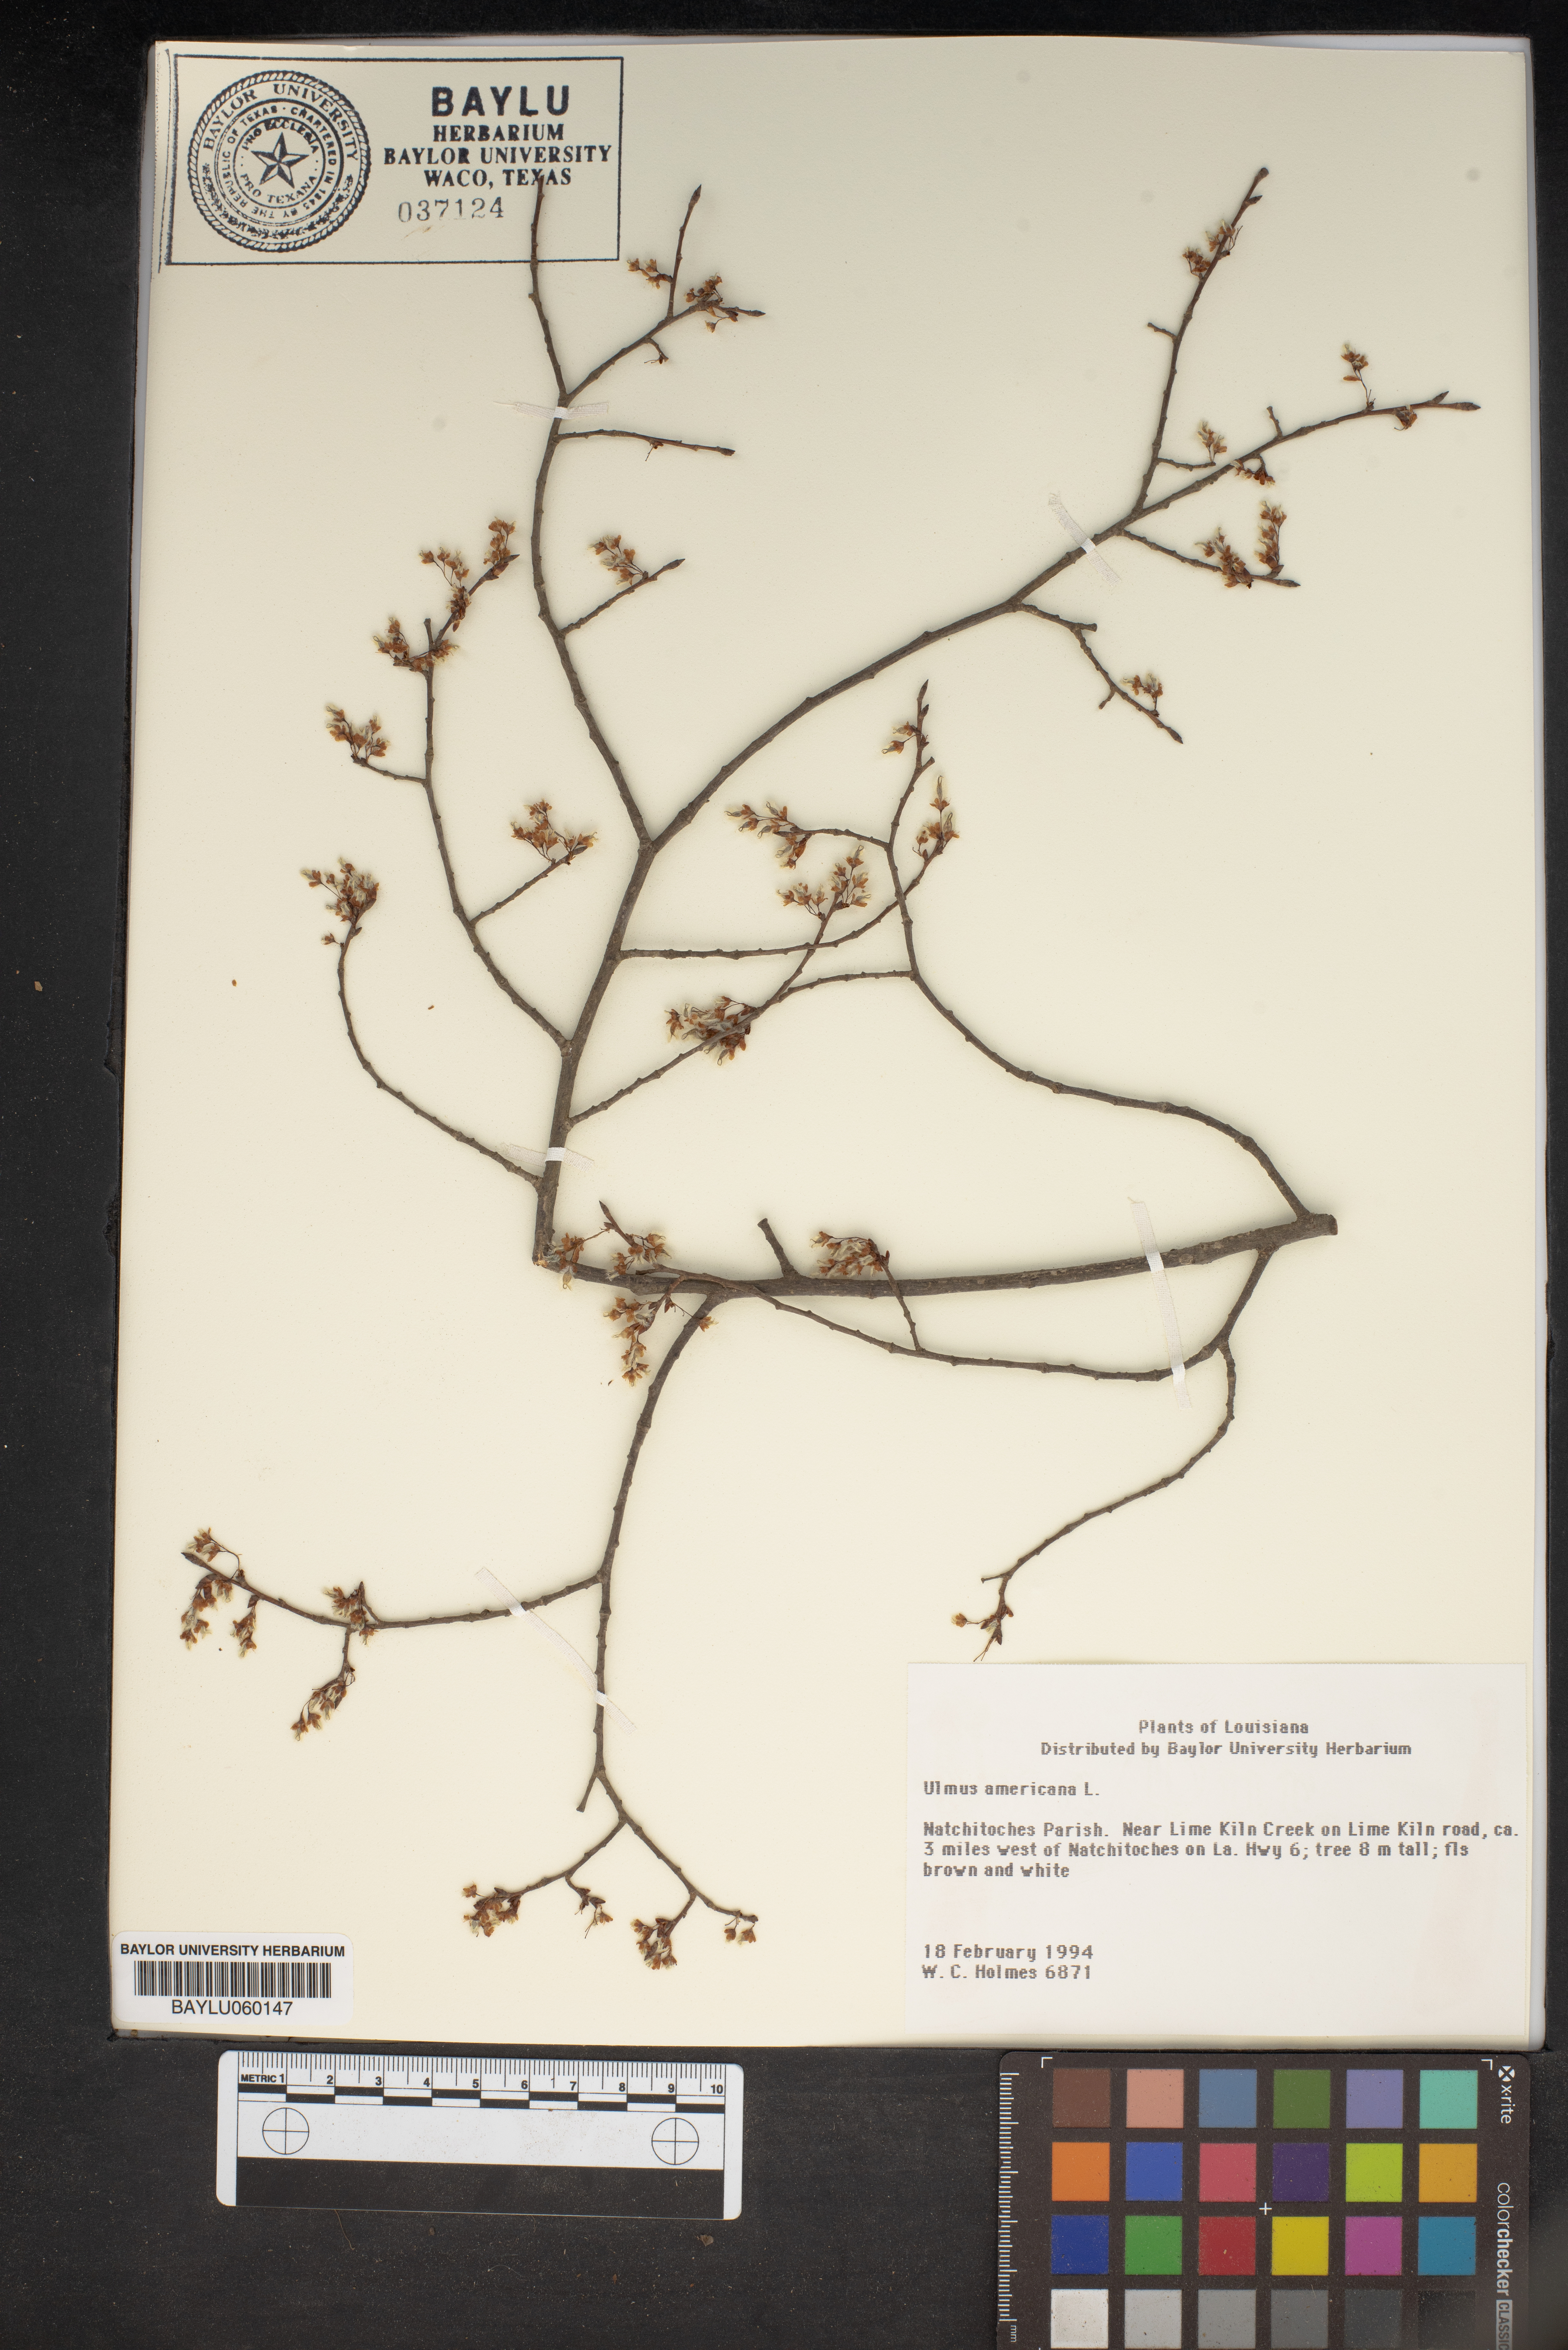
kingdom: Plantae
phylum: Tracheophyta
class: Magnoliopsida
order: Rosales
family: Ulmaceae
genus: Ulmus
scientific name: Ulmus americana
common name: American elm
